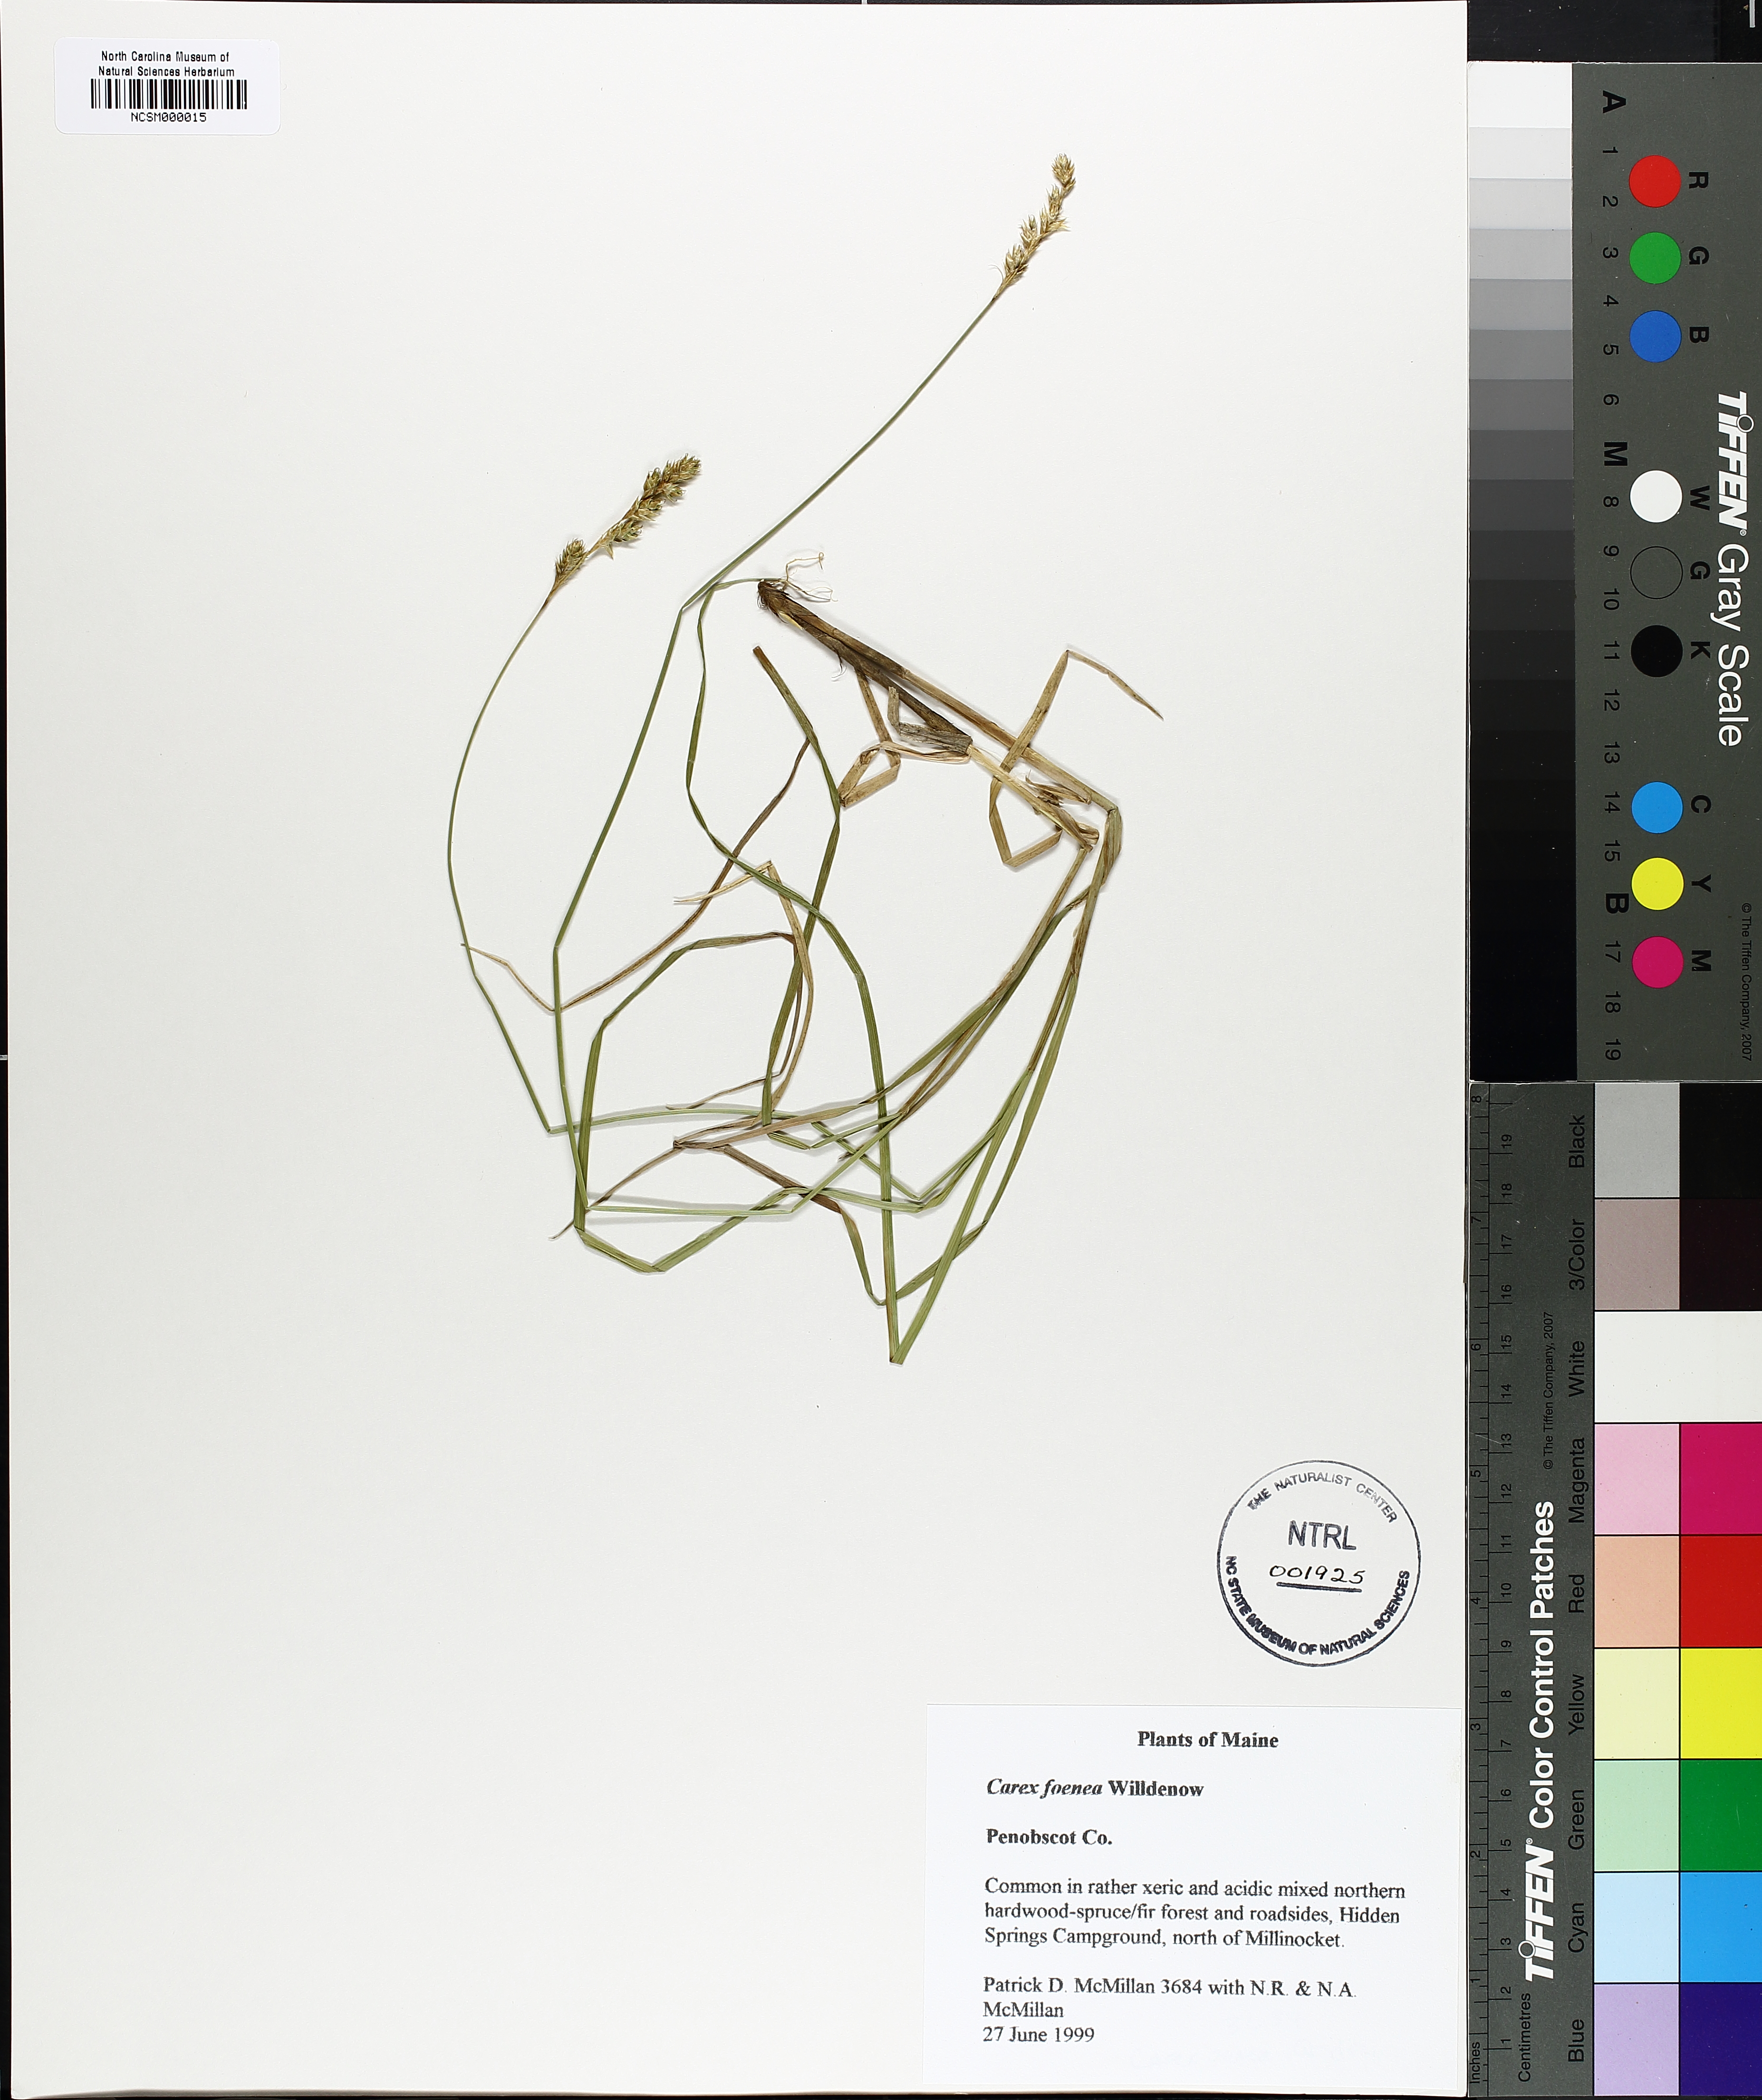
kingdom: Plantae
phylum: Tracheophyta
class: Liliopsida
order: Poales
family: Cyperaceae
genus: Carex
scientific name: Carex foenea
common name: Bronze sedge
